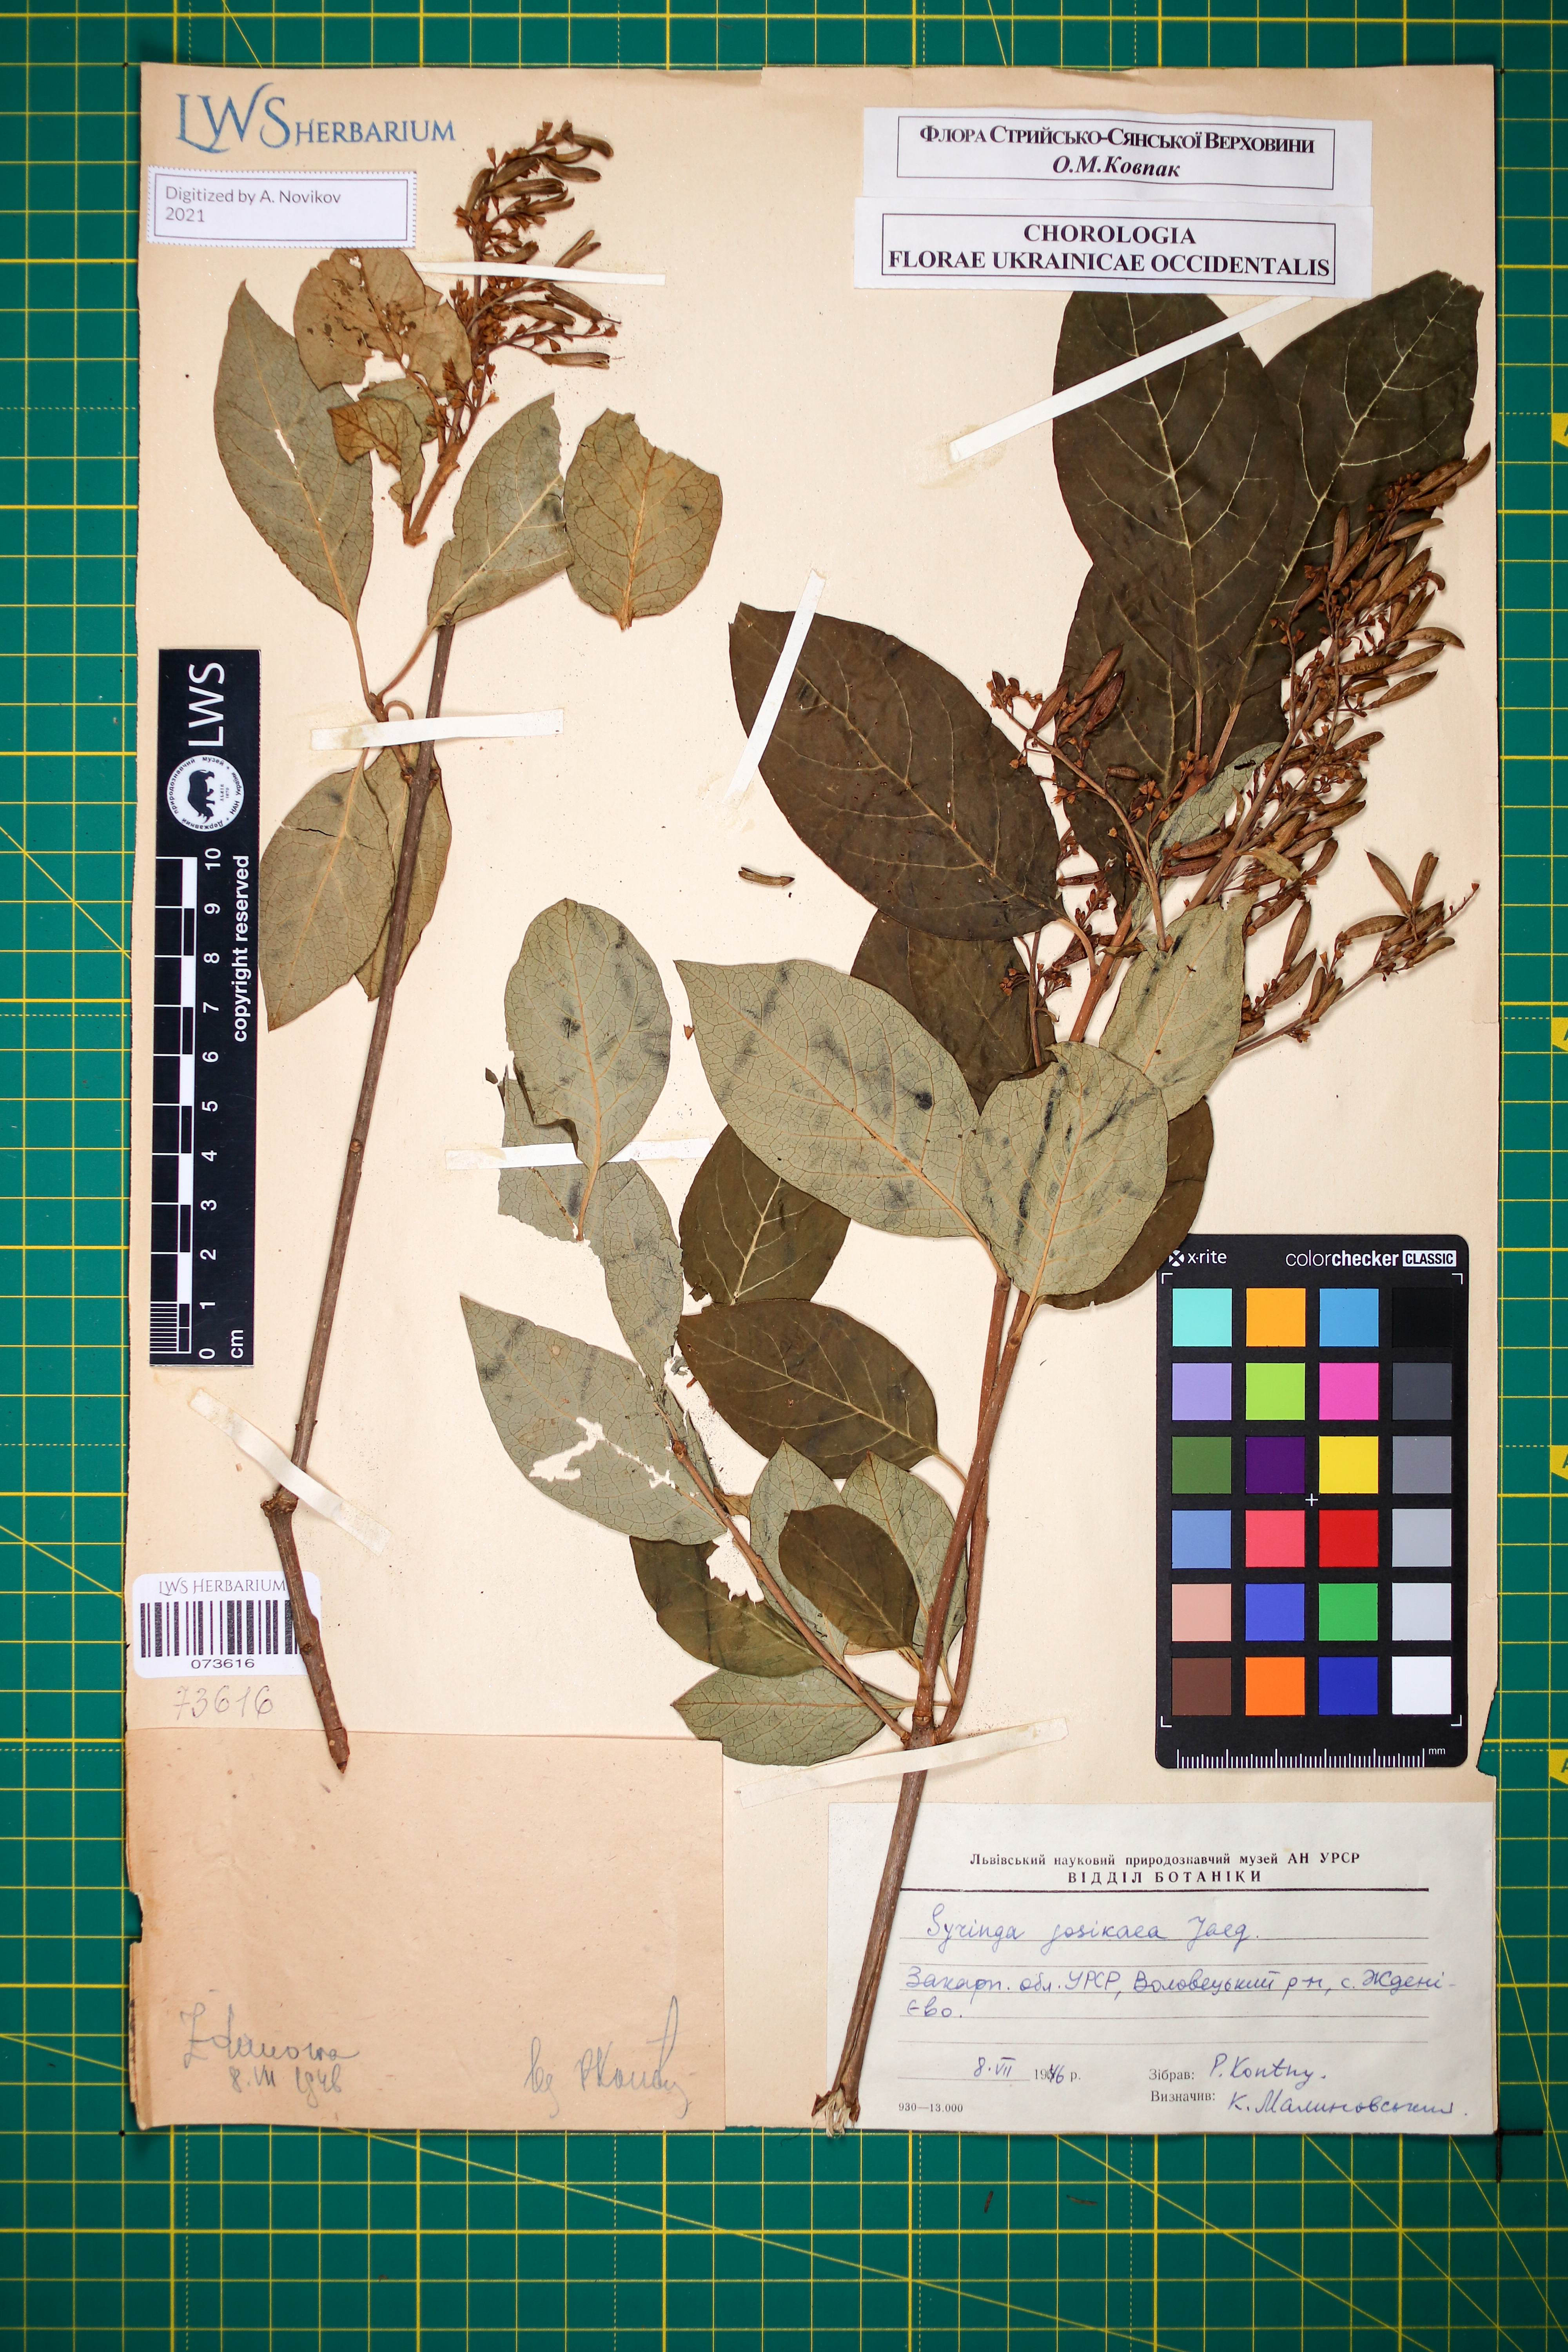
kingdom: Plantae
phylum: Tracheophyta
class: Magnoliopsida
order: Lamiales
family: Oleaceae
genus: Syringa
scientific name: Syringa josikaea
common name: Hungarian lilac
